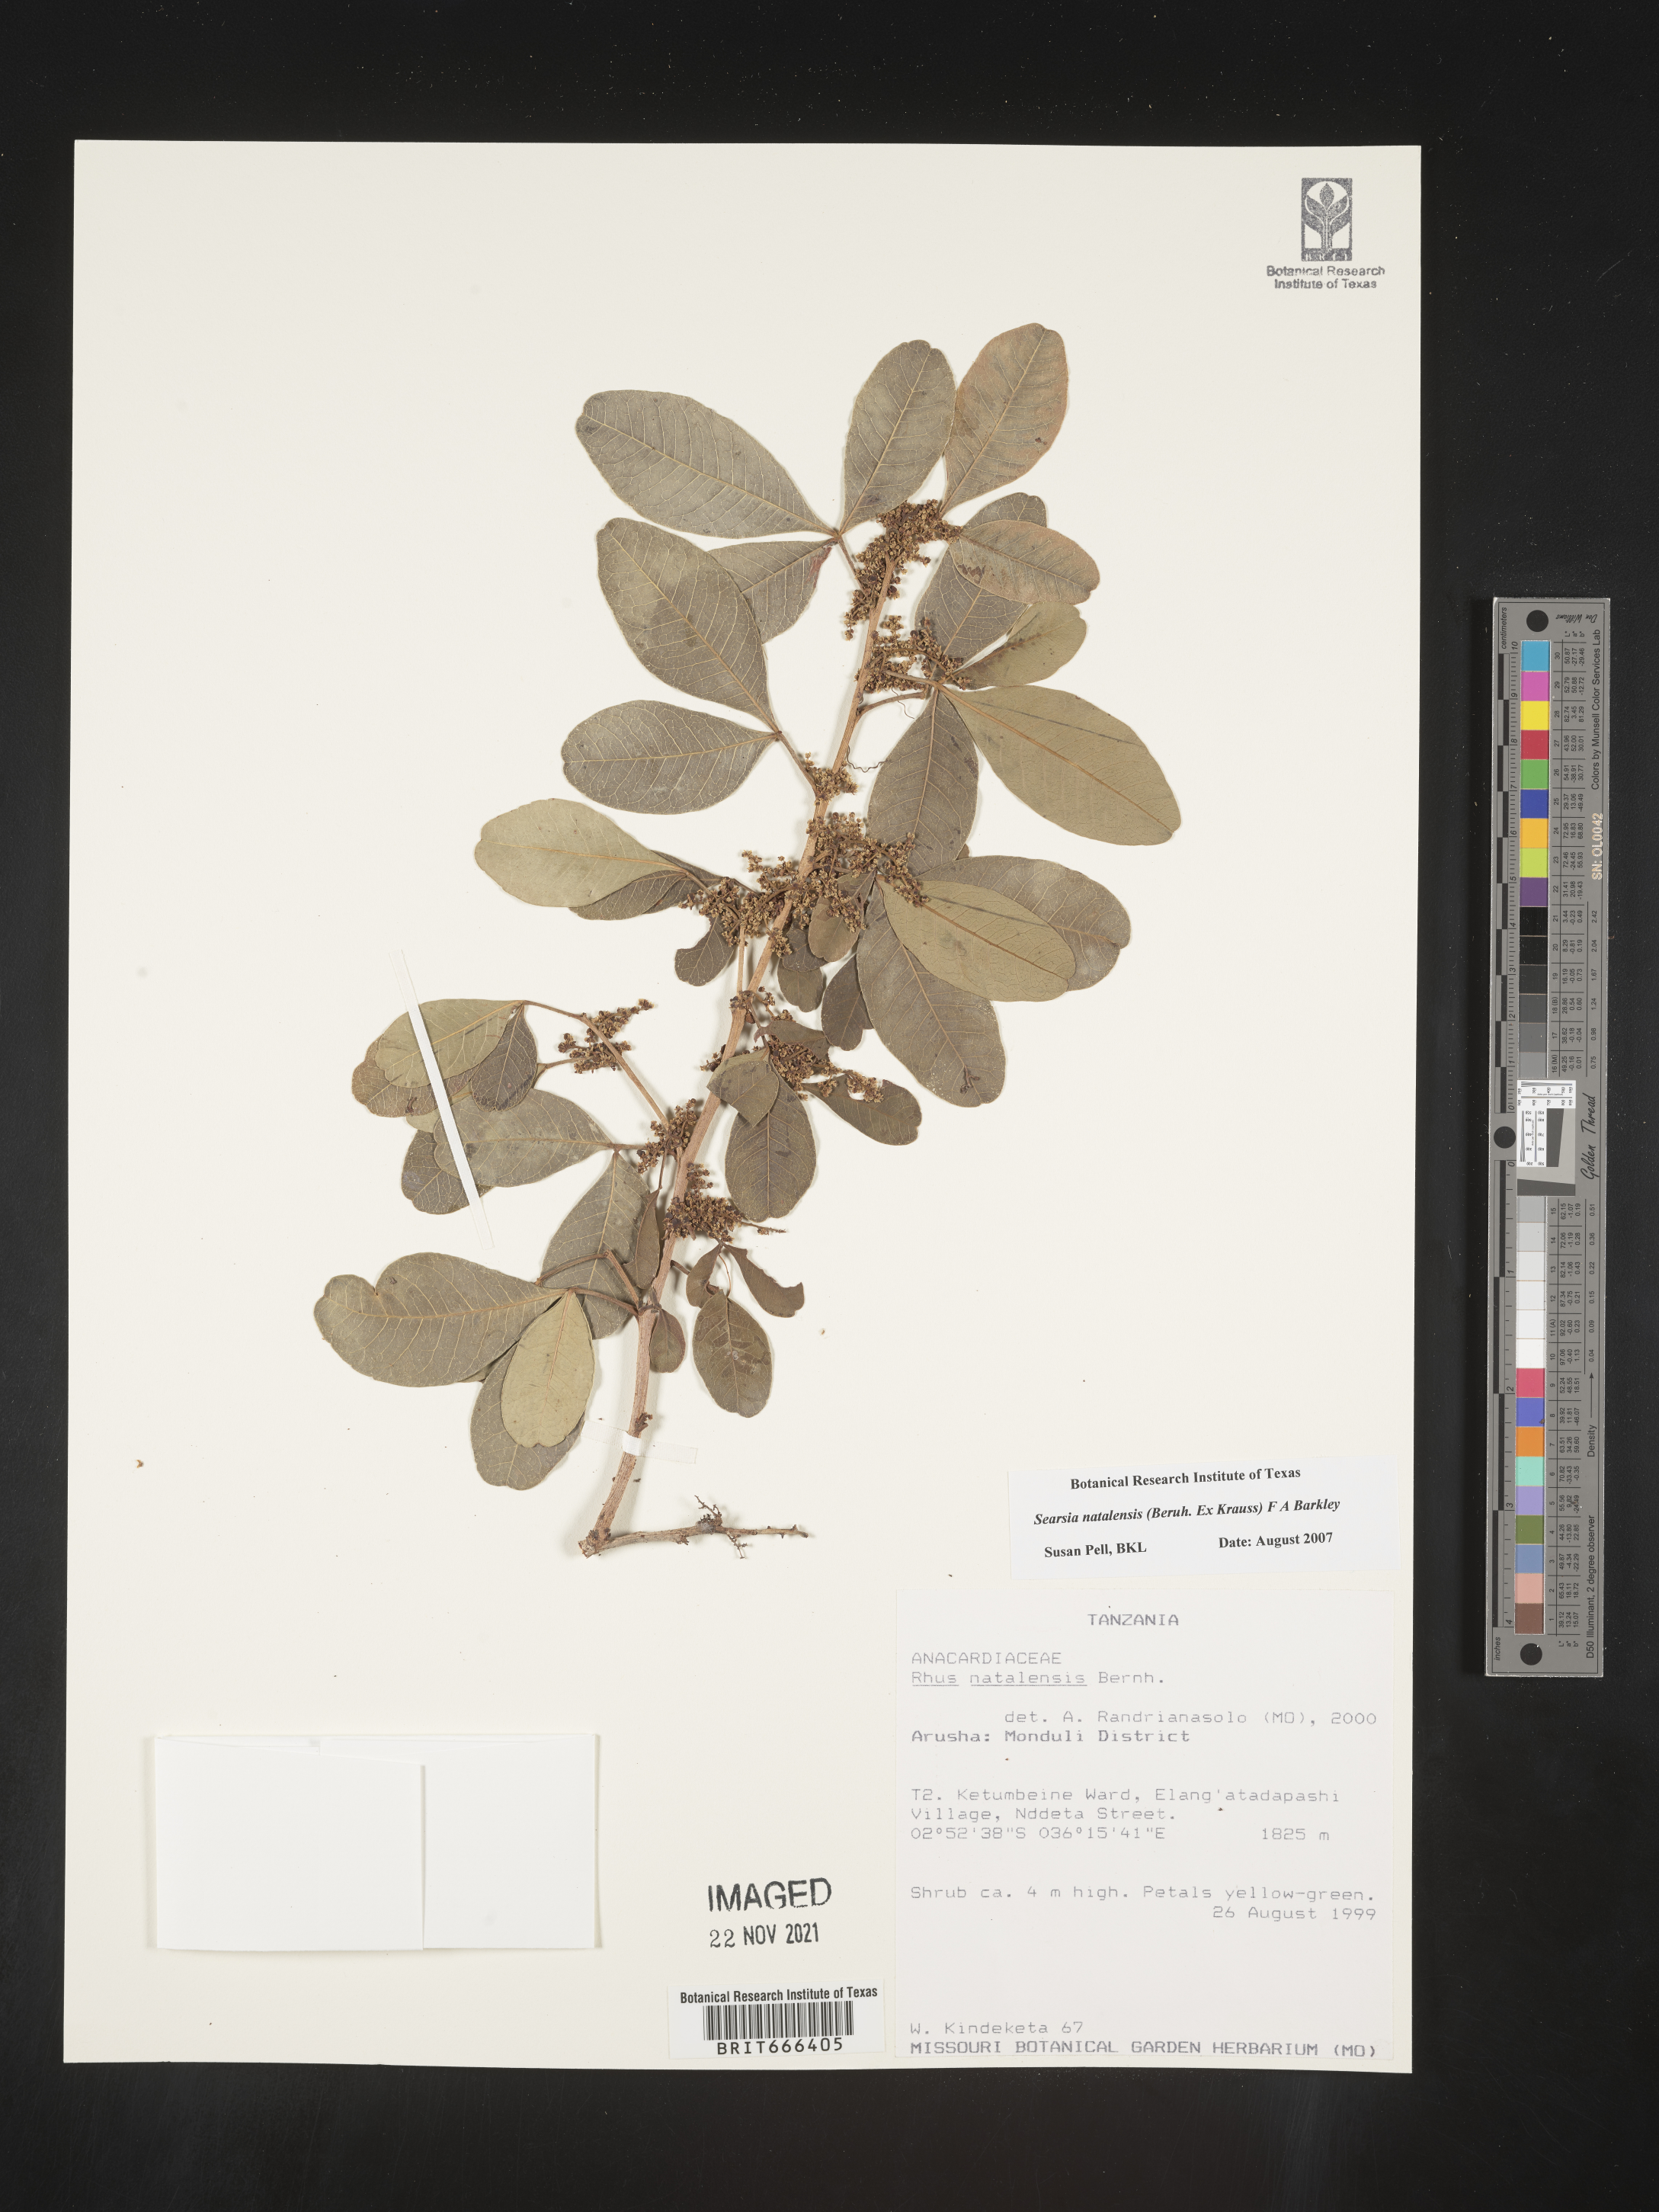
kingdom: Plantae
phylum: Tracheophyta
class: Magnoliopsida
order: Sapindales
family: Anacardiaceae
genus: Searsia
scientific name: Searsia natalensis
